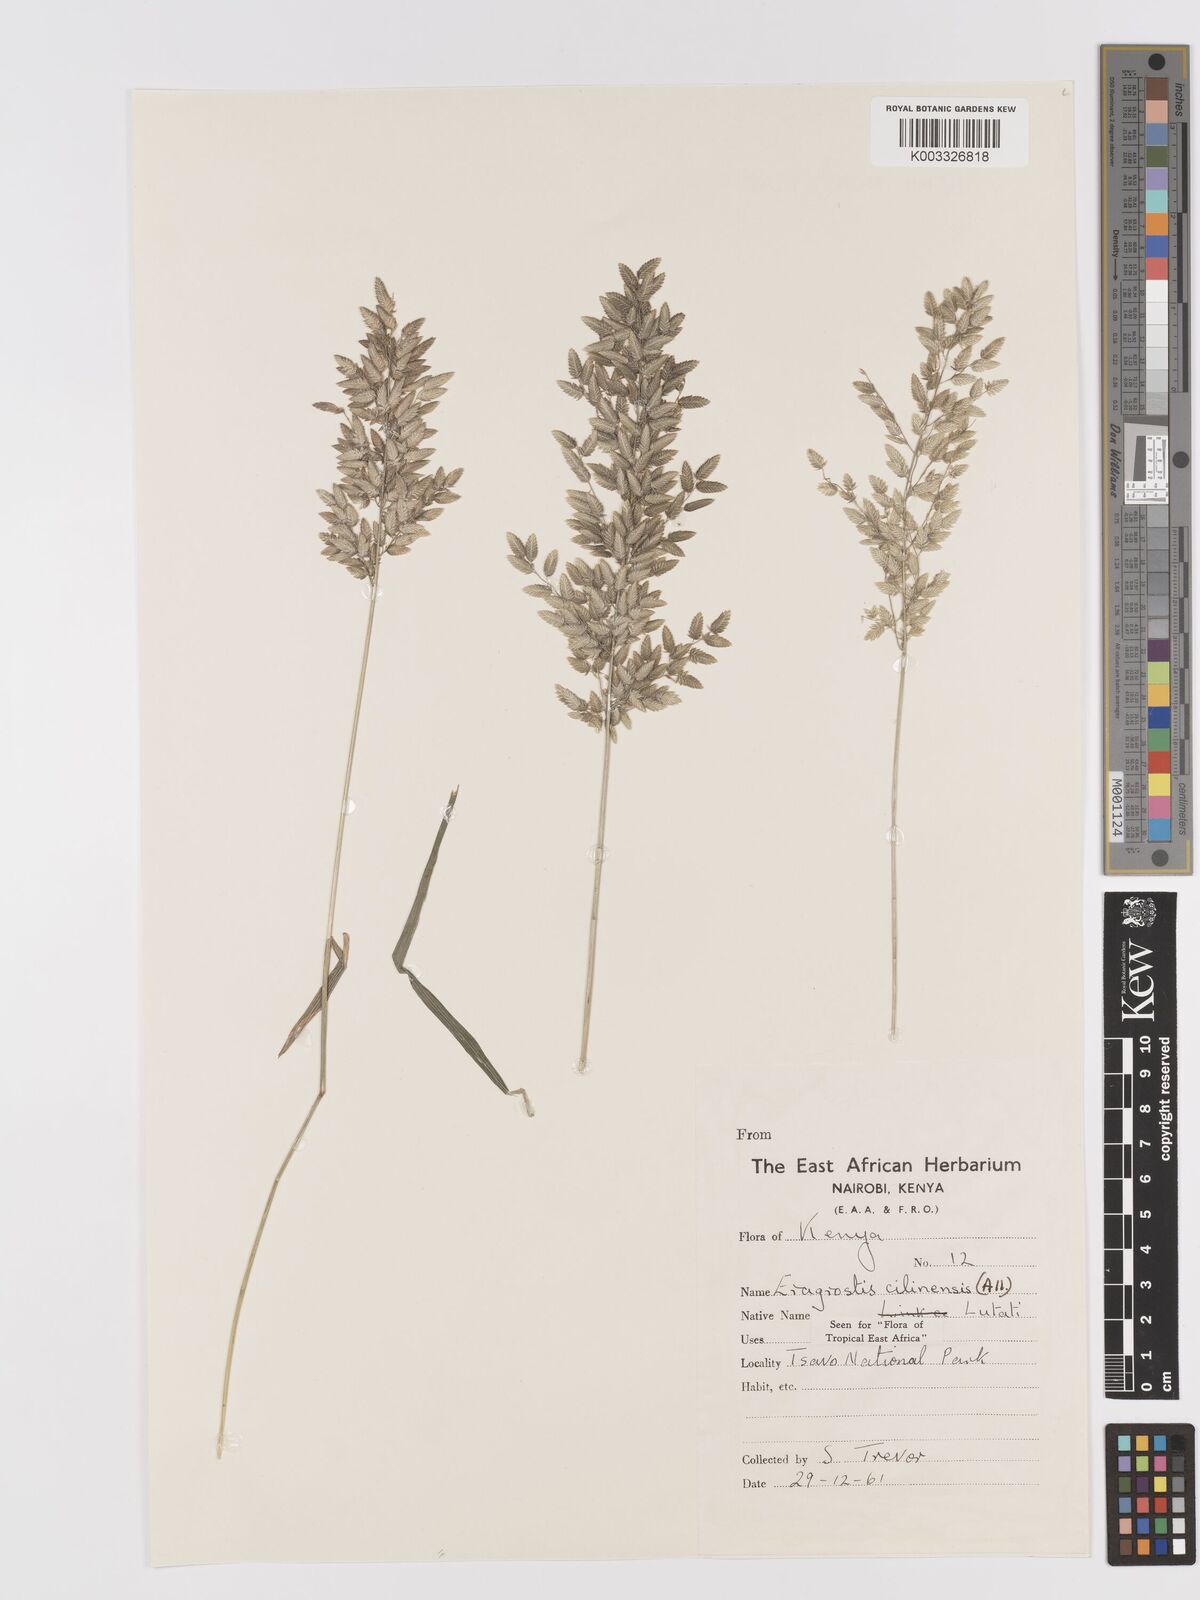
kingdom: Plantae
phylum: Tracheophyta
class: Liliopsida
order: Poales
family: Poaceae
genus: Eragrostis
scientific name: Eragrostis cilianensis
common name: Stinkgrass
